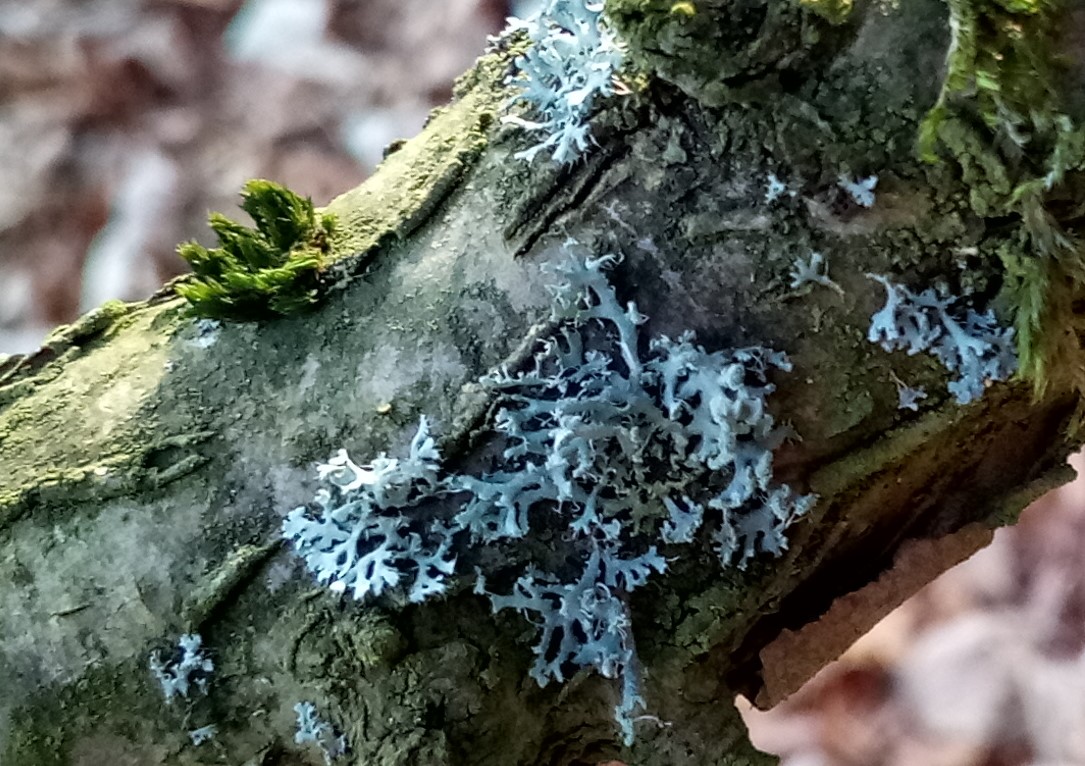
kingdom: Fungi
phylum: Ascomycota
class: Lecanoromycetes
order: Caliciales
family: Physciaceae
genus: Physcia
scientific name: Physcia tenella
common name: spæd rosetlav
